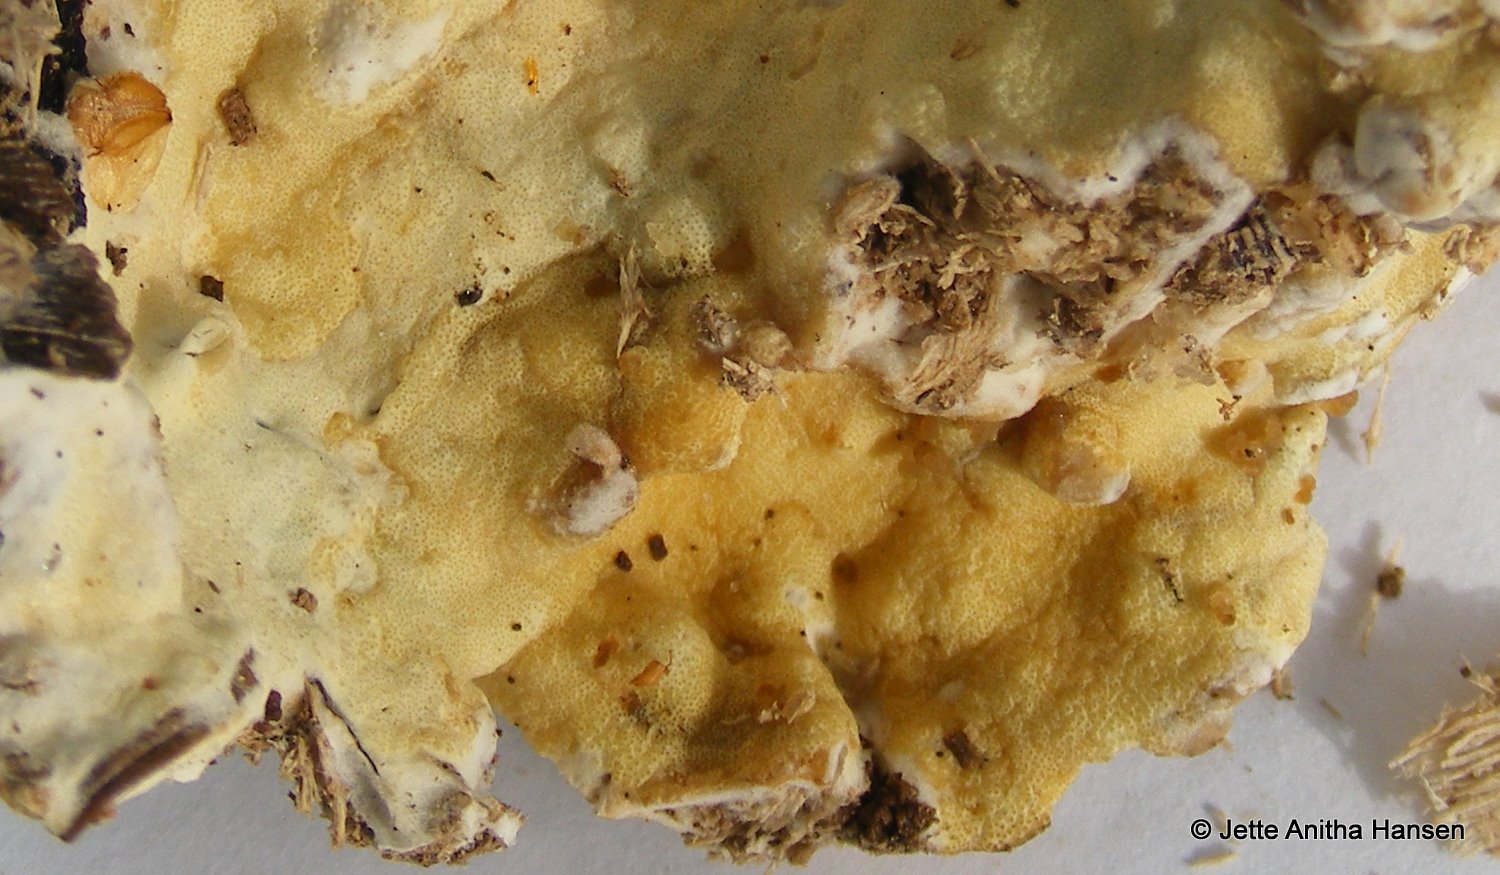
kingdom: Fungi
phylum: Ascomycota
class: Sordariomycetes
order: Hypocreales
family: Hypocreaceae
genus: Trichoderma
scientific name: Trichoderma citrinum
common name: udbredt kødkerne
